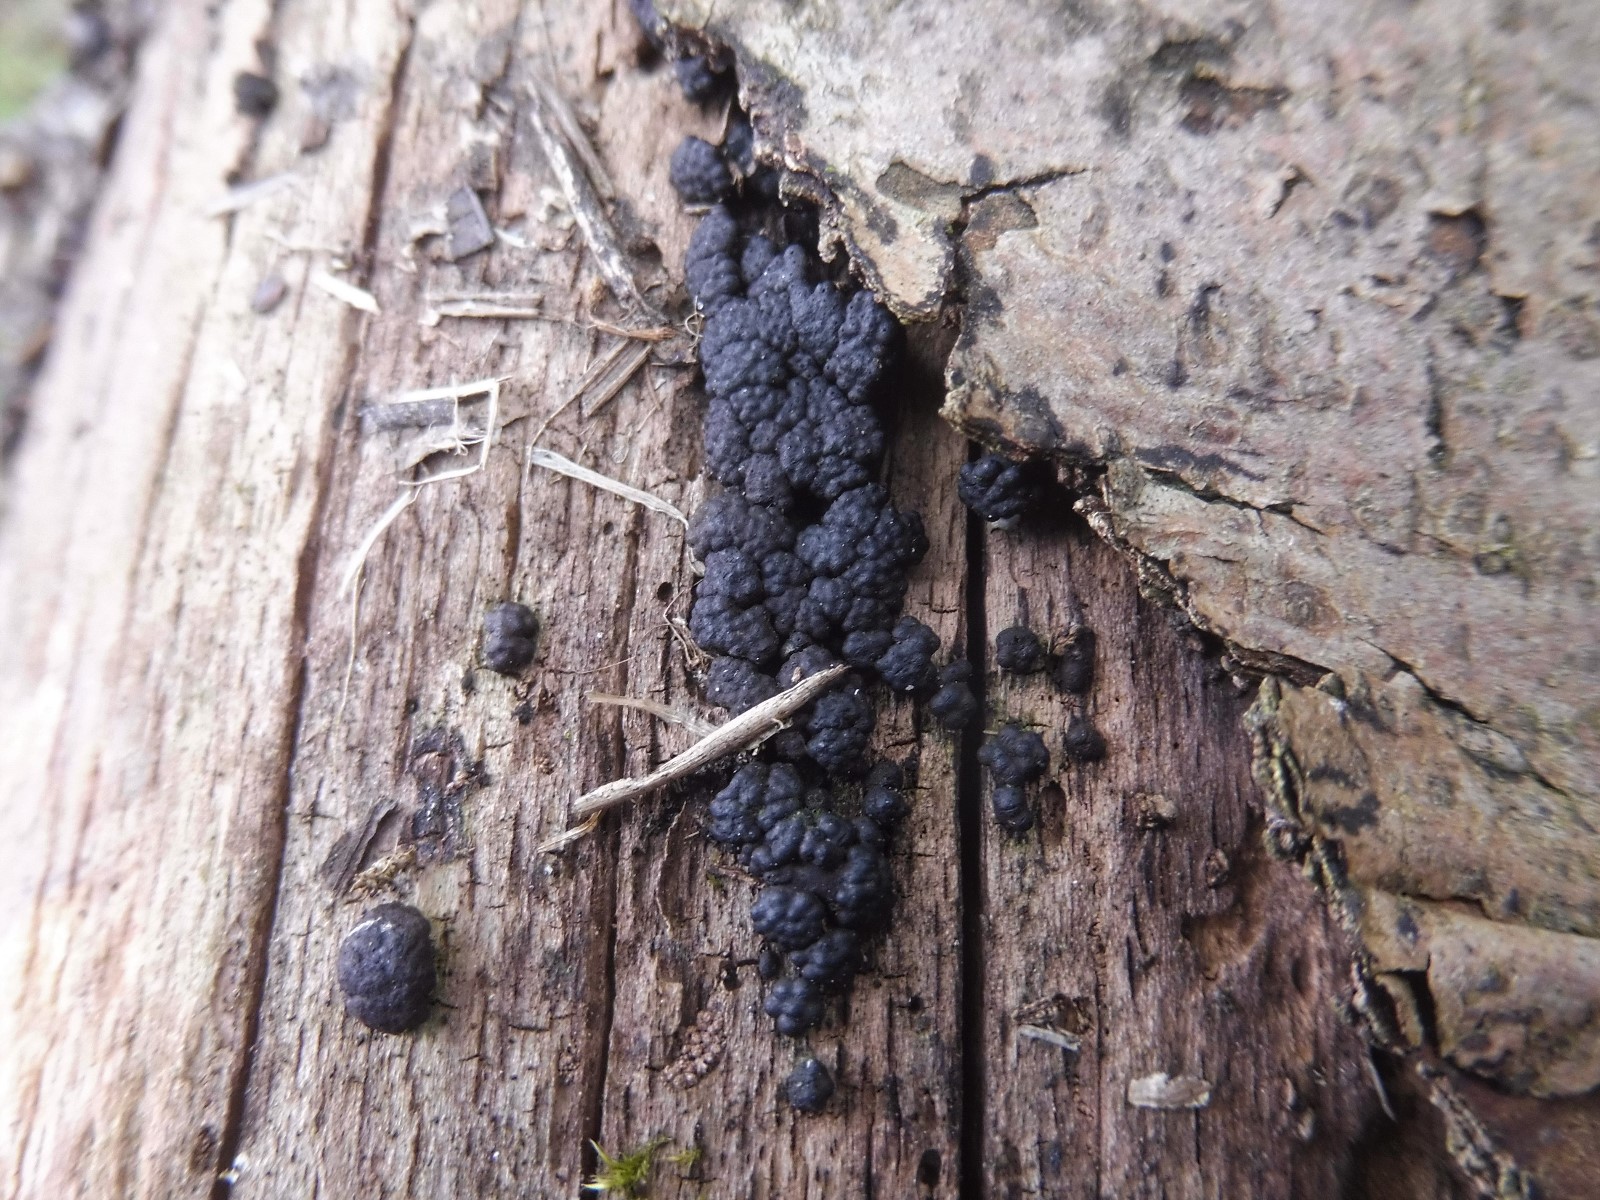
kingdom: Fungi
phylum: Ascomycota
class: Sordariomycetes
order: Xylariales
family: Hypoxylaceae
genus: Jackrogersella
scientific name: Jackrogersella cohaerens
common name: sammenflydende kulbær
